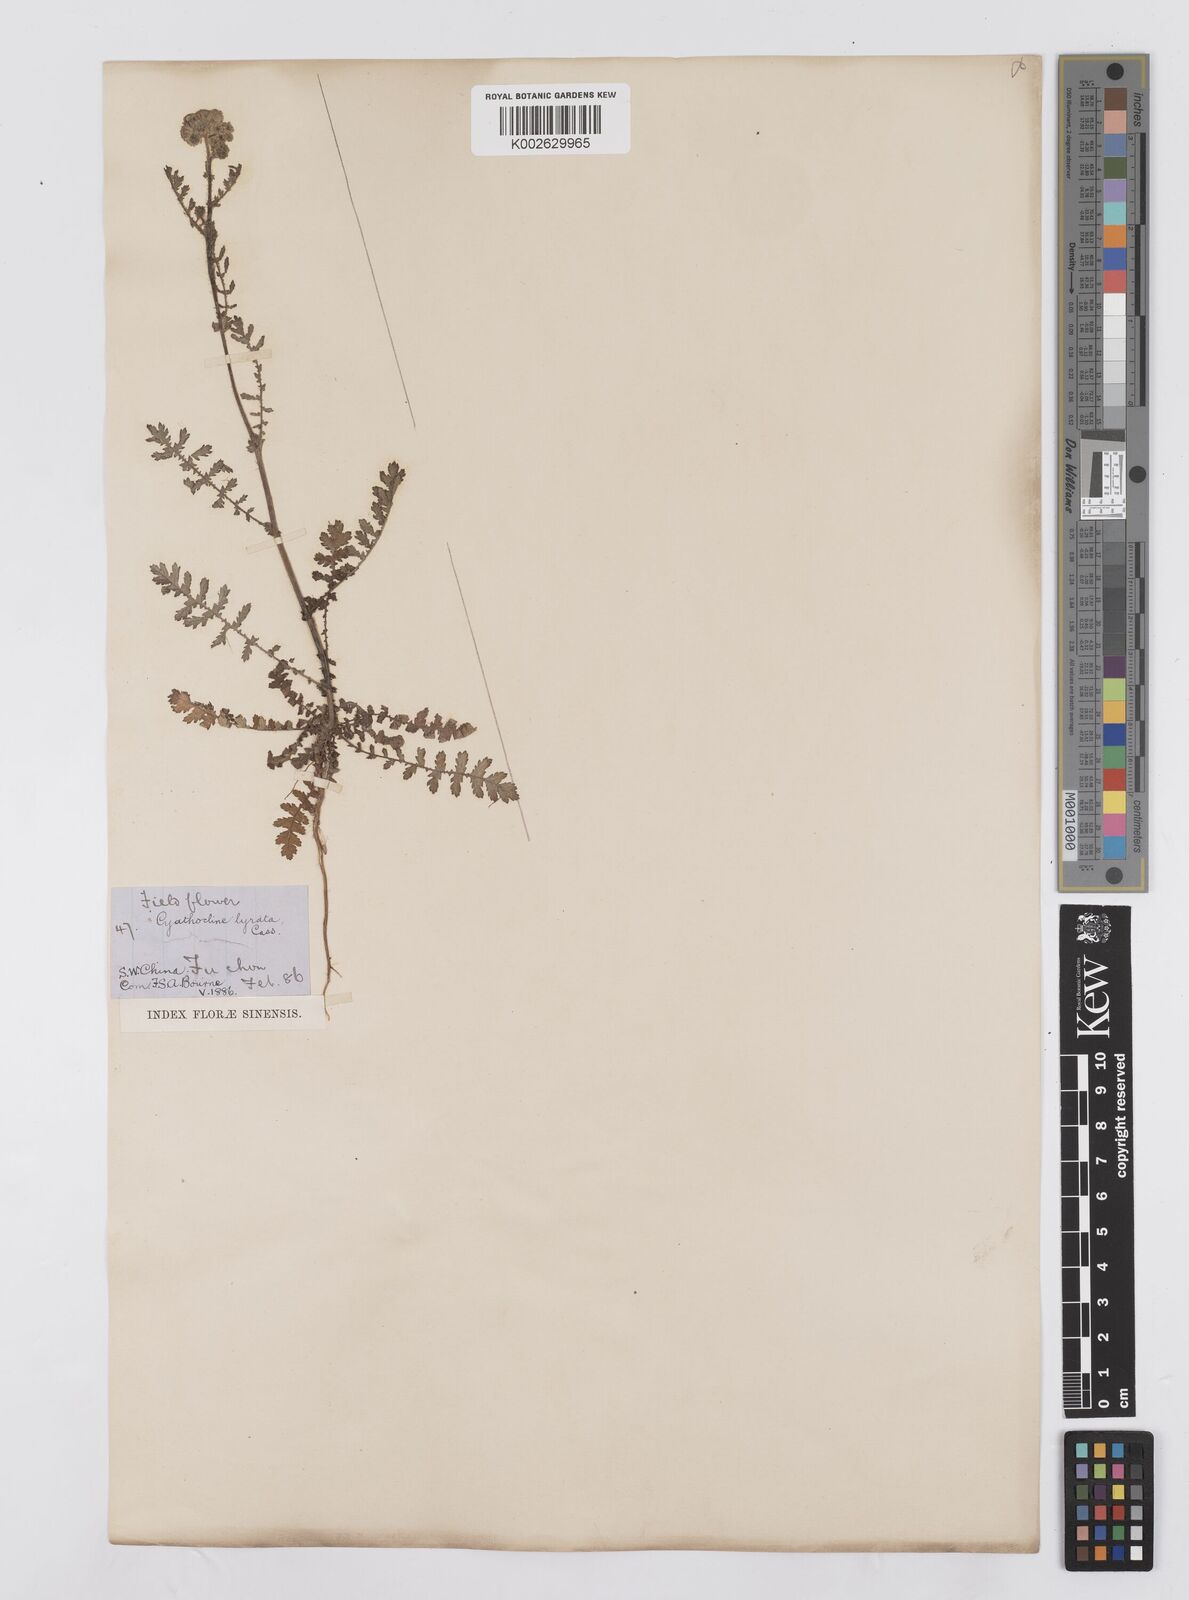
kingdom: Plantae
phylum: Tracheophyta
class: Magnoliopsida
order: Asterales
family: Asteraceae
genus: Cyathocline
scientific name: Cyathocline purpurea
